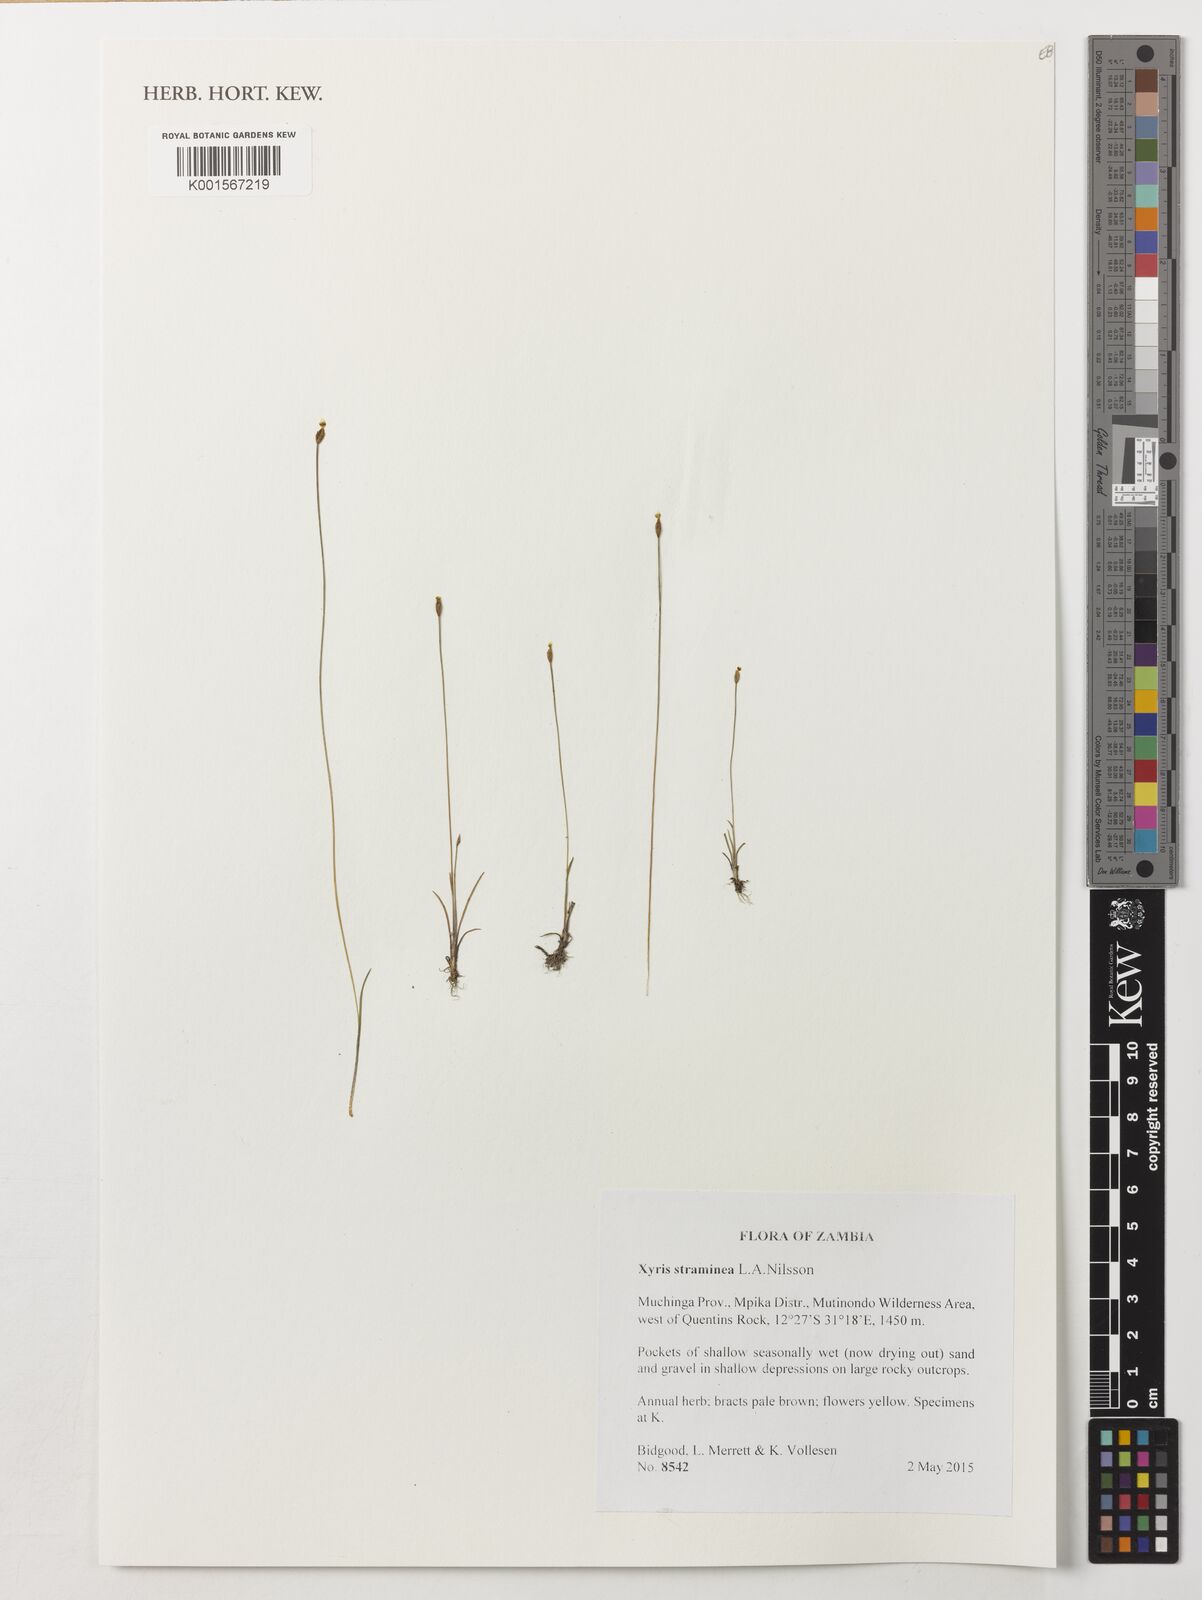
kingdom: Plantae
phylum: Tracheophyta
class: Liliopsida
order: Poales
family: Xyridaceae
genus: Xyris
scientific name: Xyris straminea
